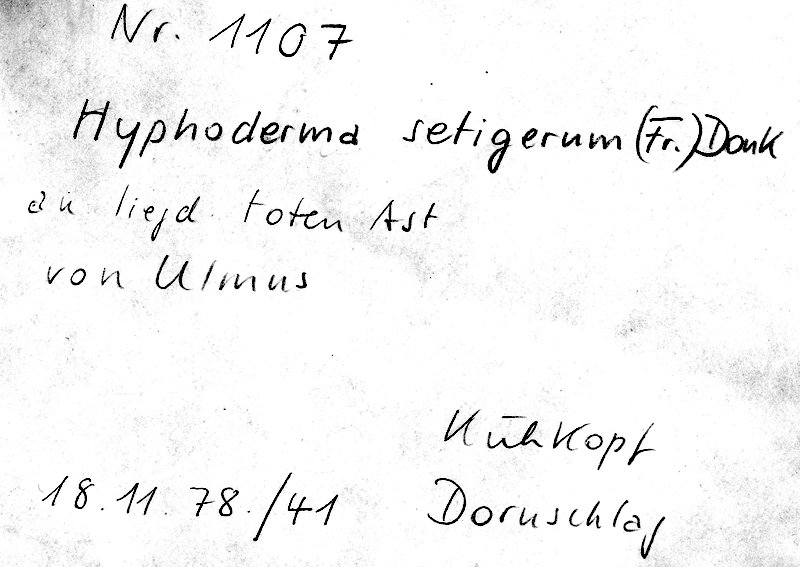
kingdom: Fungi
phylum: Basidiomycota
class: Agaricomycetes
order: Polyporales
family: Hyphodermataceae
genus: Hyphoderma
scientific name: Hyphoderma setigerum
